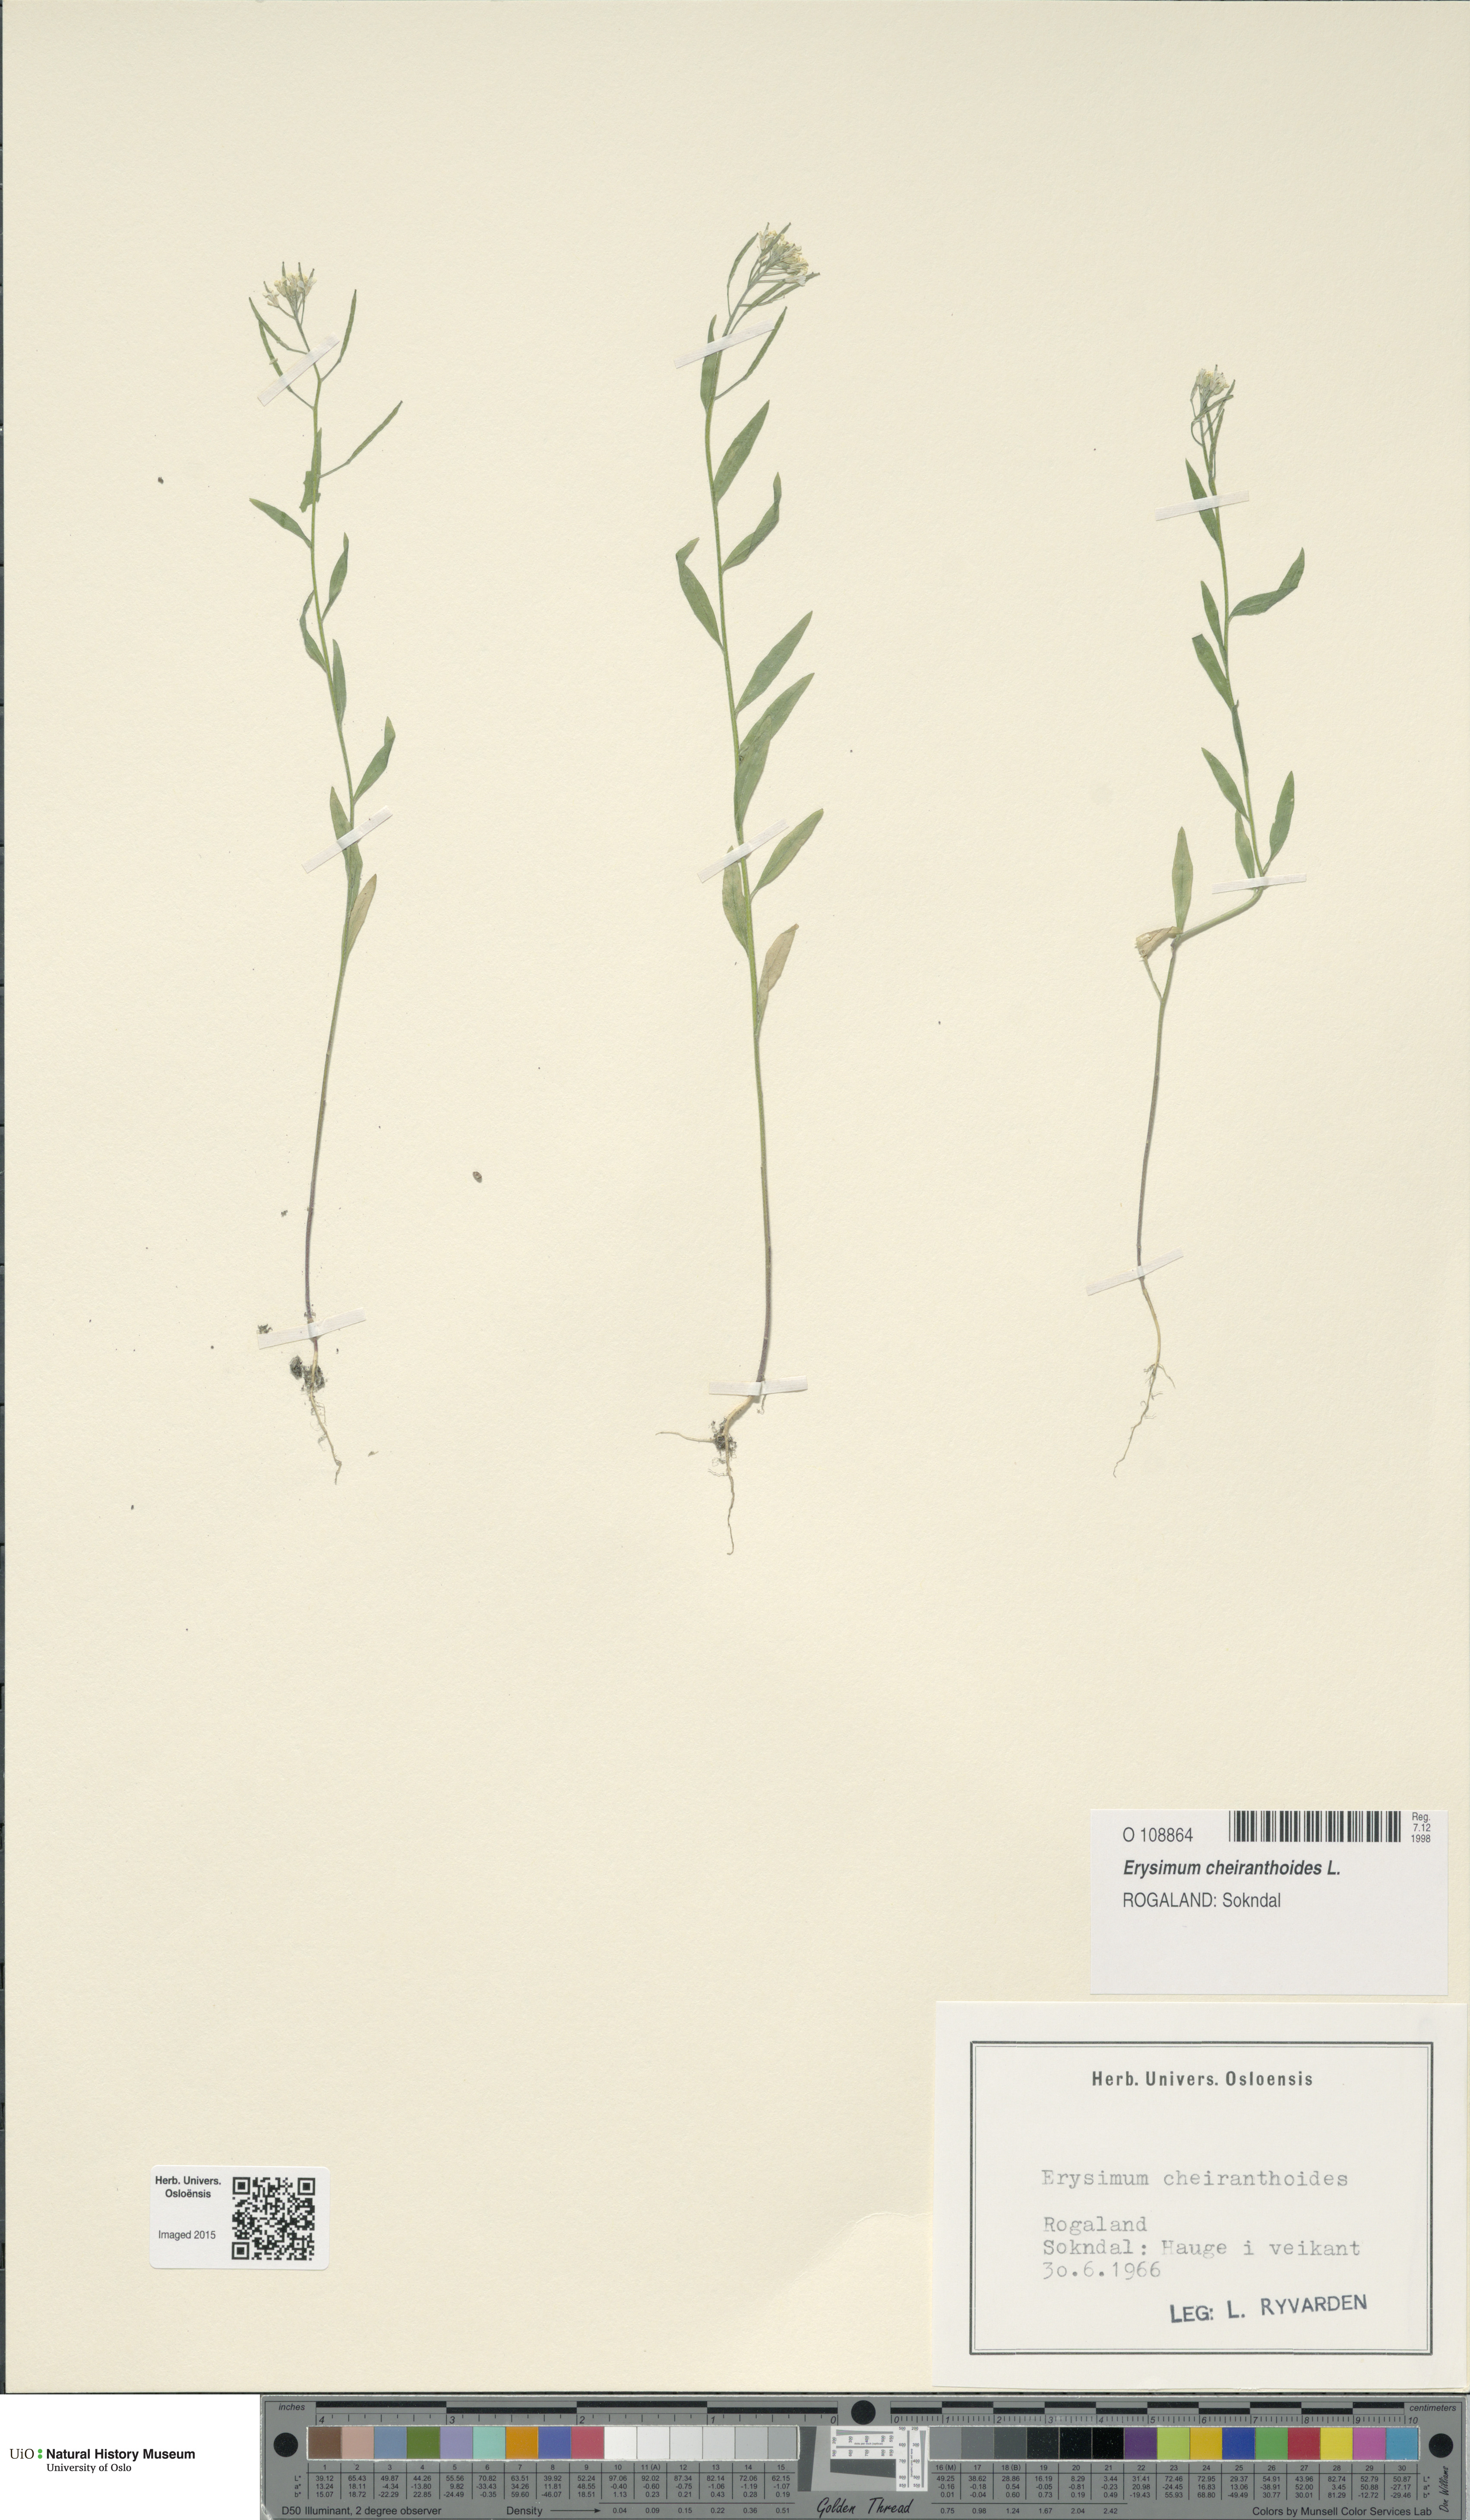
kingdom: Plantae
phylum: Tracheophyta
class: Magnoliopsida
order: Brassicales
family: Brassicaceae
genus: Erysimum
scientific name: Erysimum cheiranthoides
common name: Treacle mustard
